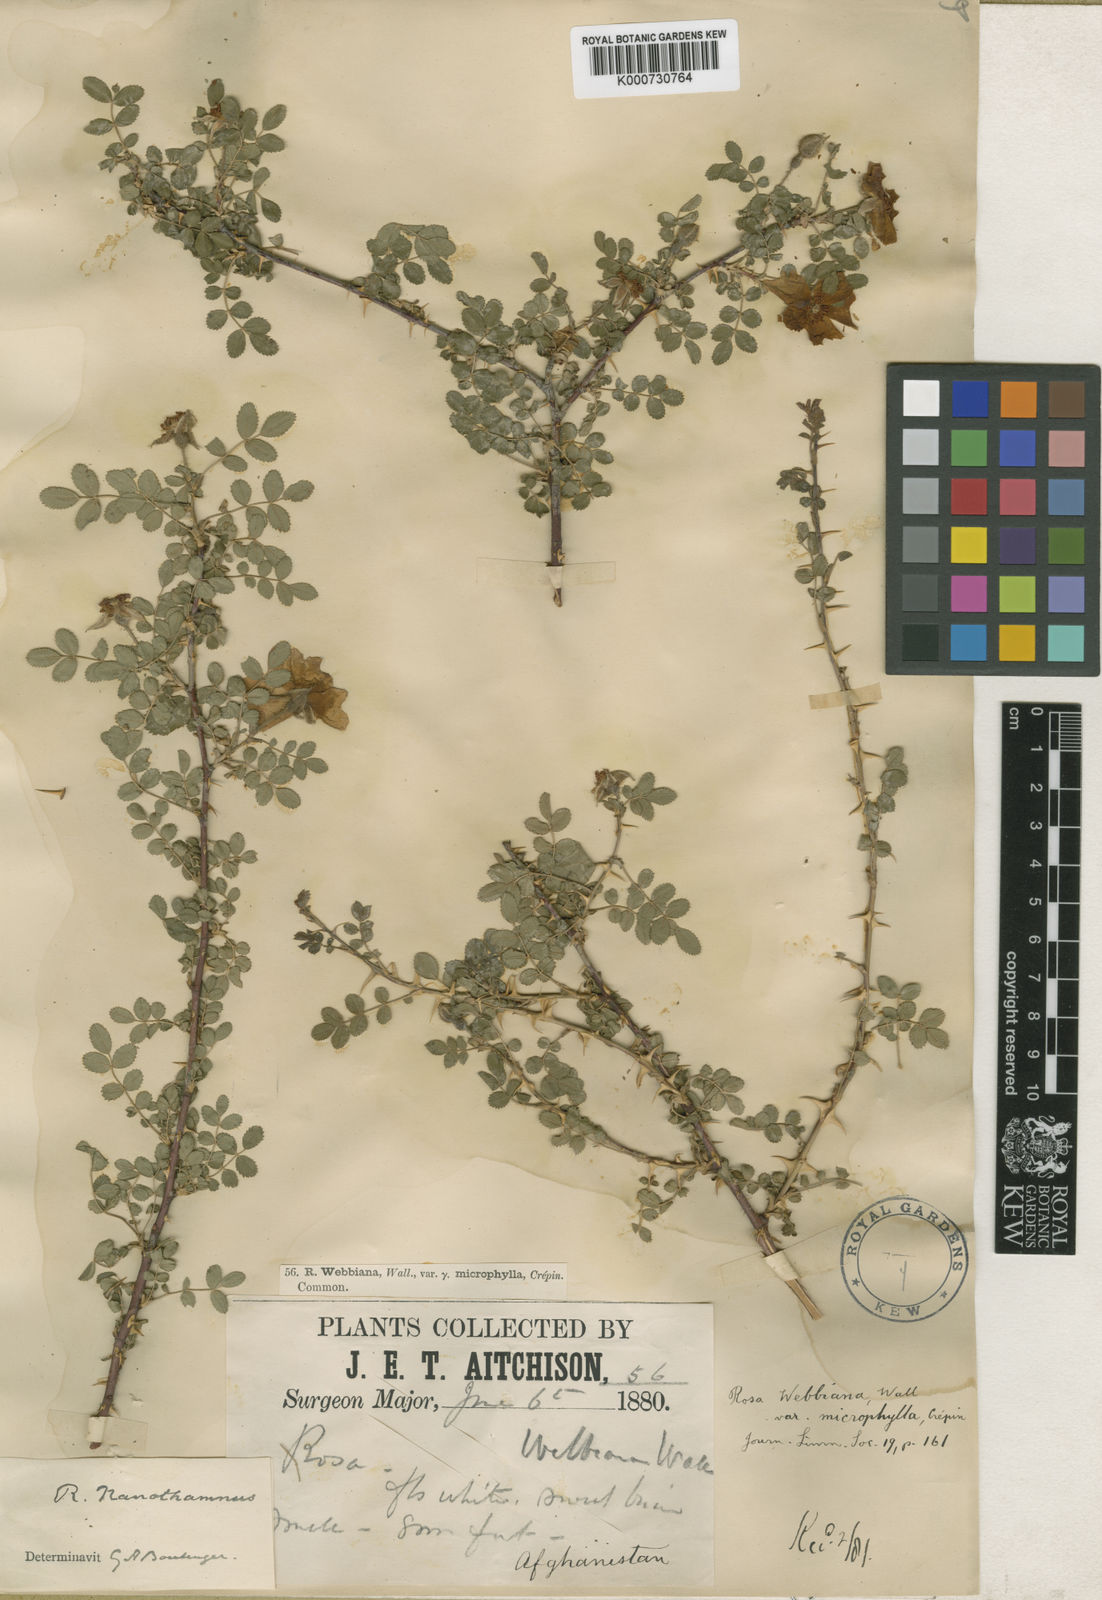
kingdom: Plantae
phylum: Tracheophyta
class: Magnoliopsida
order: Rosales
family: Rosaceae
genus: Rosa
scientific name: Rosa
